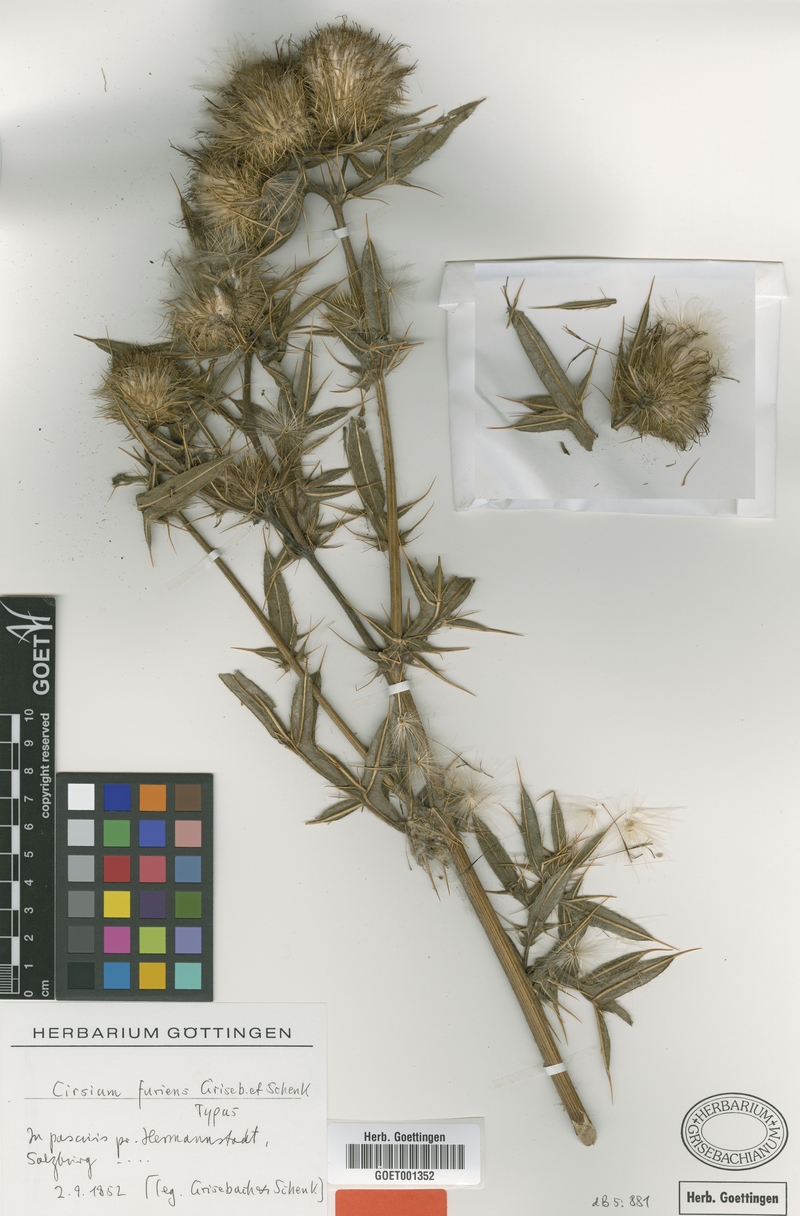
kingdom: Plantae
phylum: Tracheophyta
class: Magnoliopsida
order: Asterales
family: Asteraceae
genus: Lophiolepis
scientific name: Lophiolepis furiens
